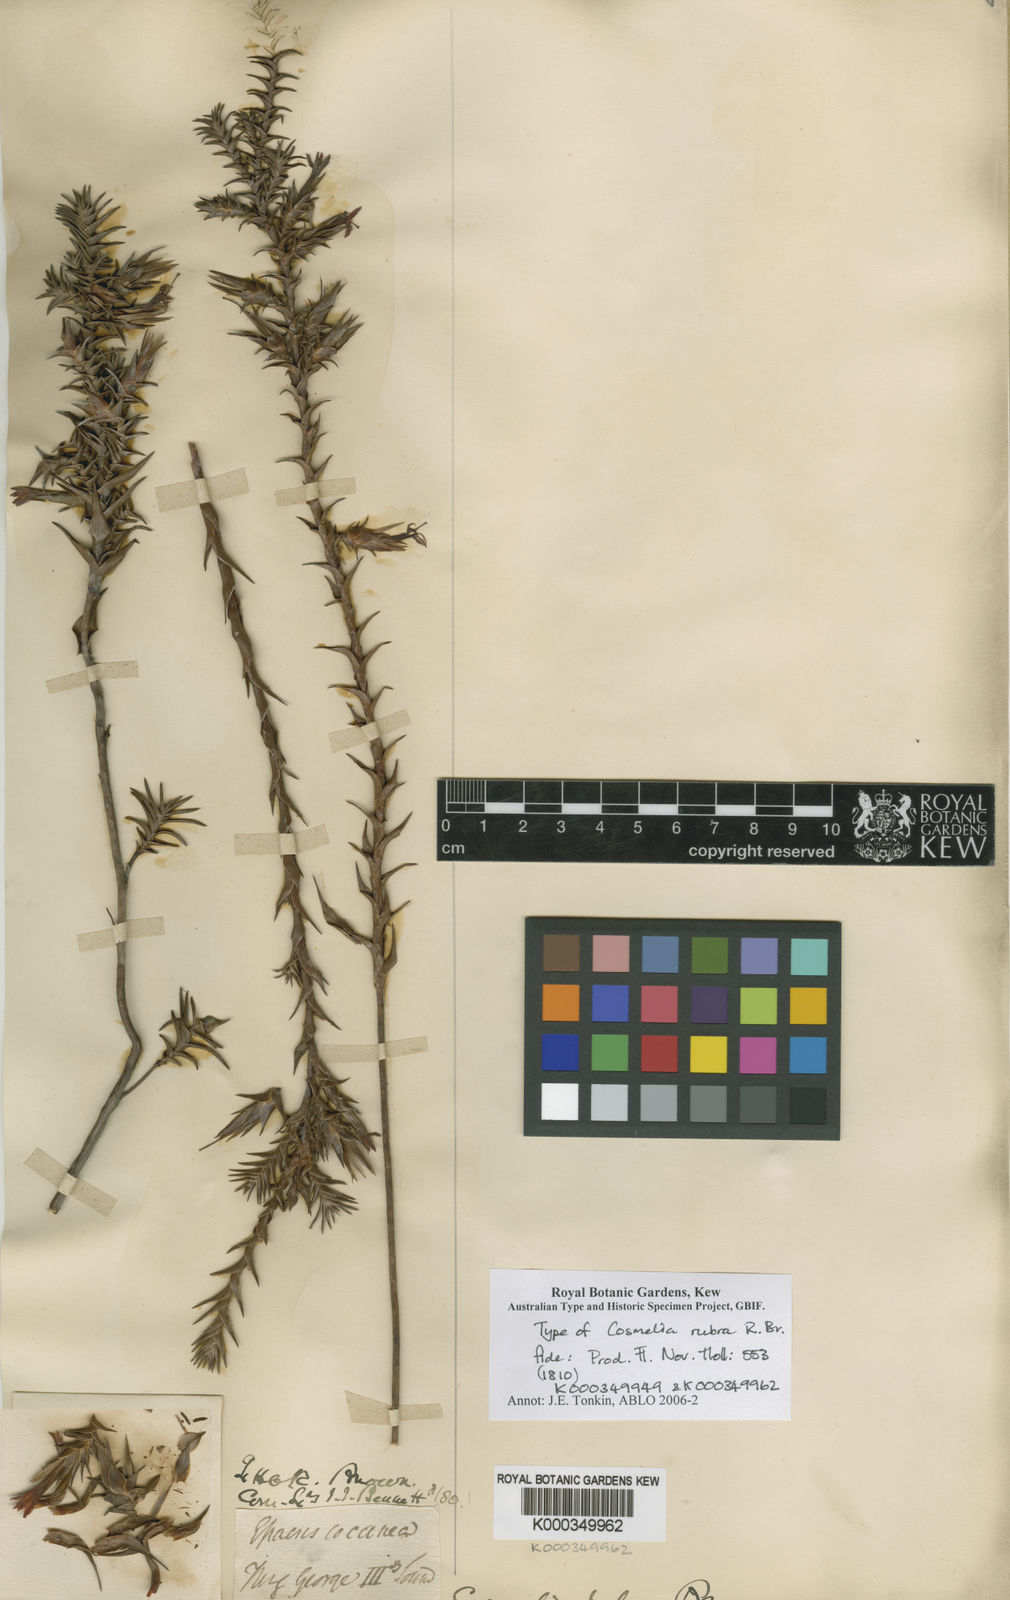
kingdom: Plantae
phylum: Tracheophyta
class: Magnoliopsida
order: Ericales
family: Ericaceae
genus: Cosmelia
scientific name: Cosmelia rubra
